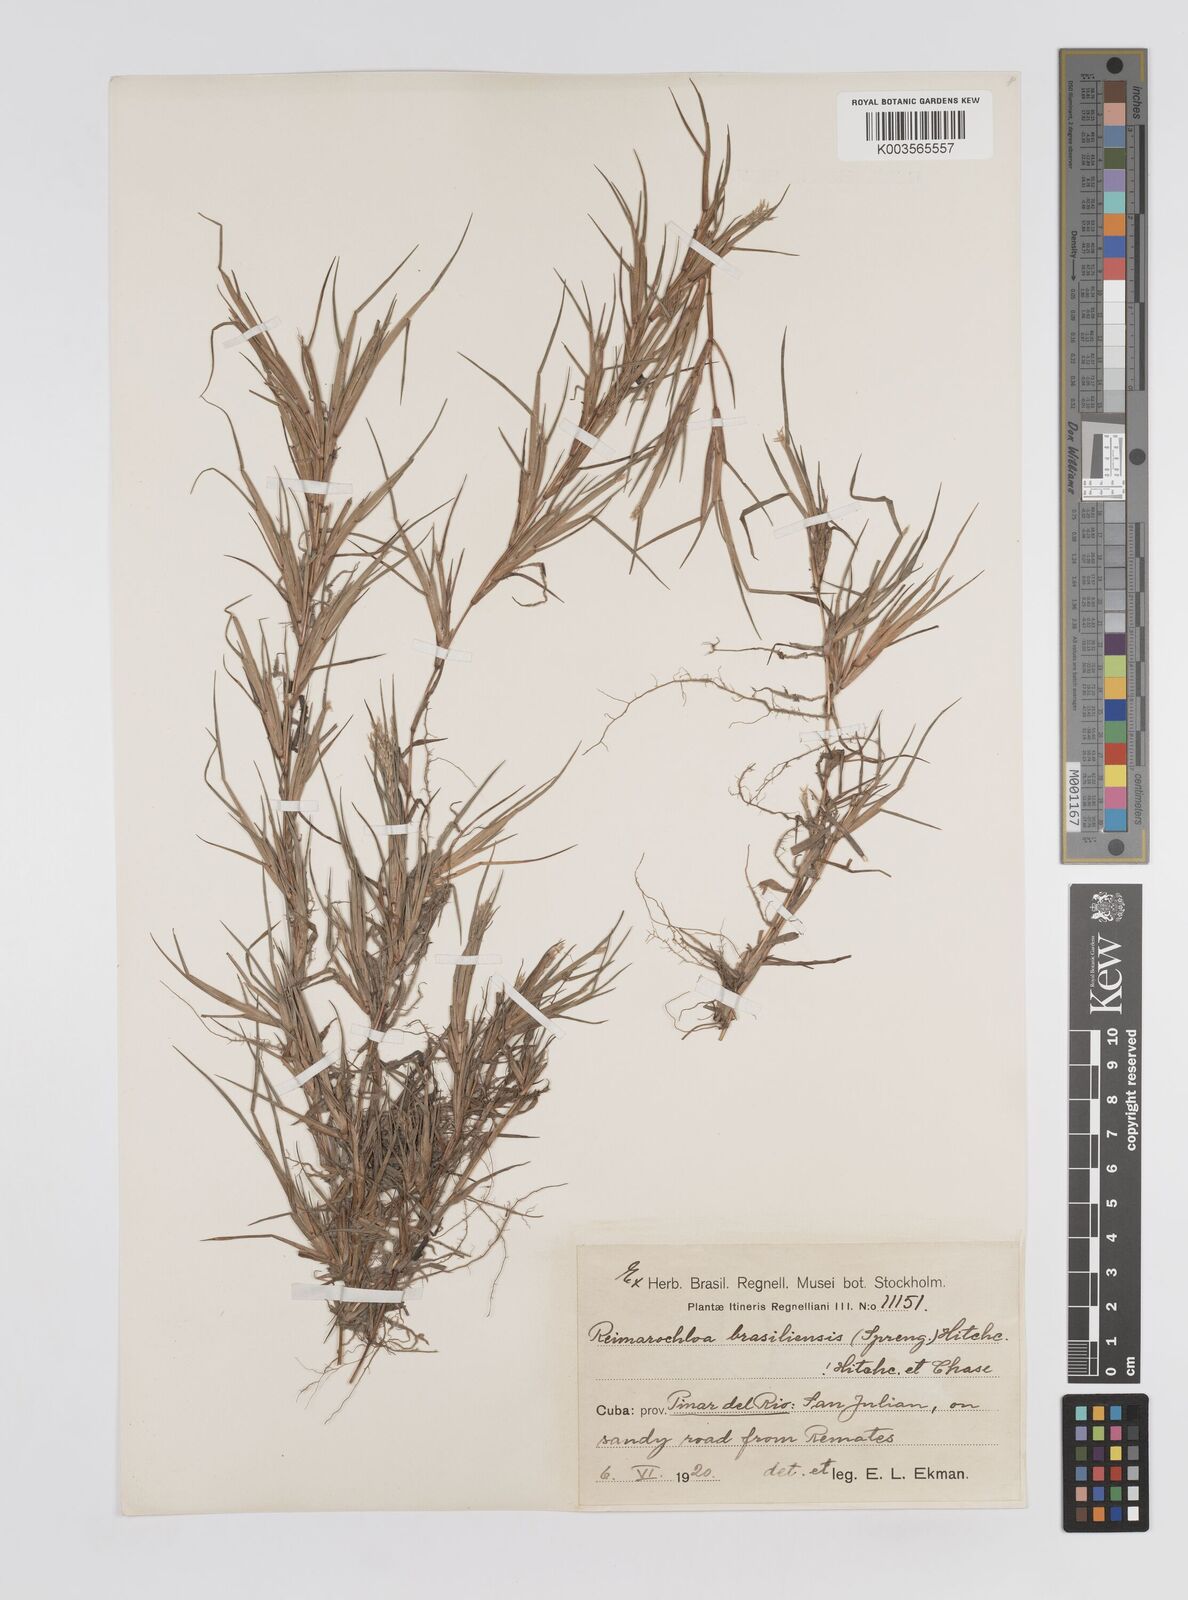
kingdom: Plantae
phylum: Tracheophyta
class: Liliopsida
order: Poales
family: Poaceae
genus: Paspalum
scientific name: Paspalum stagnophilum
